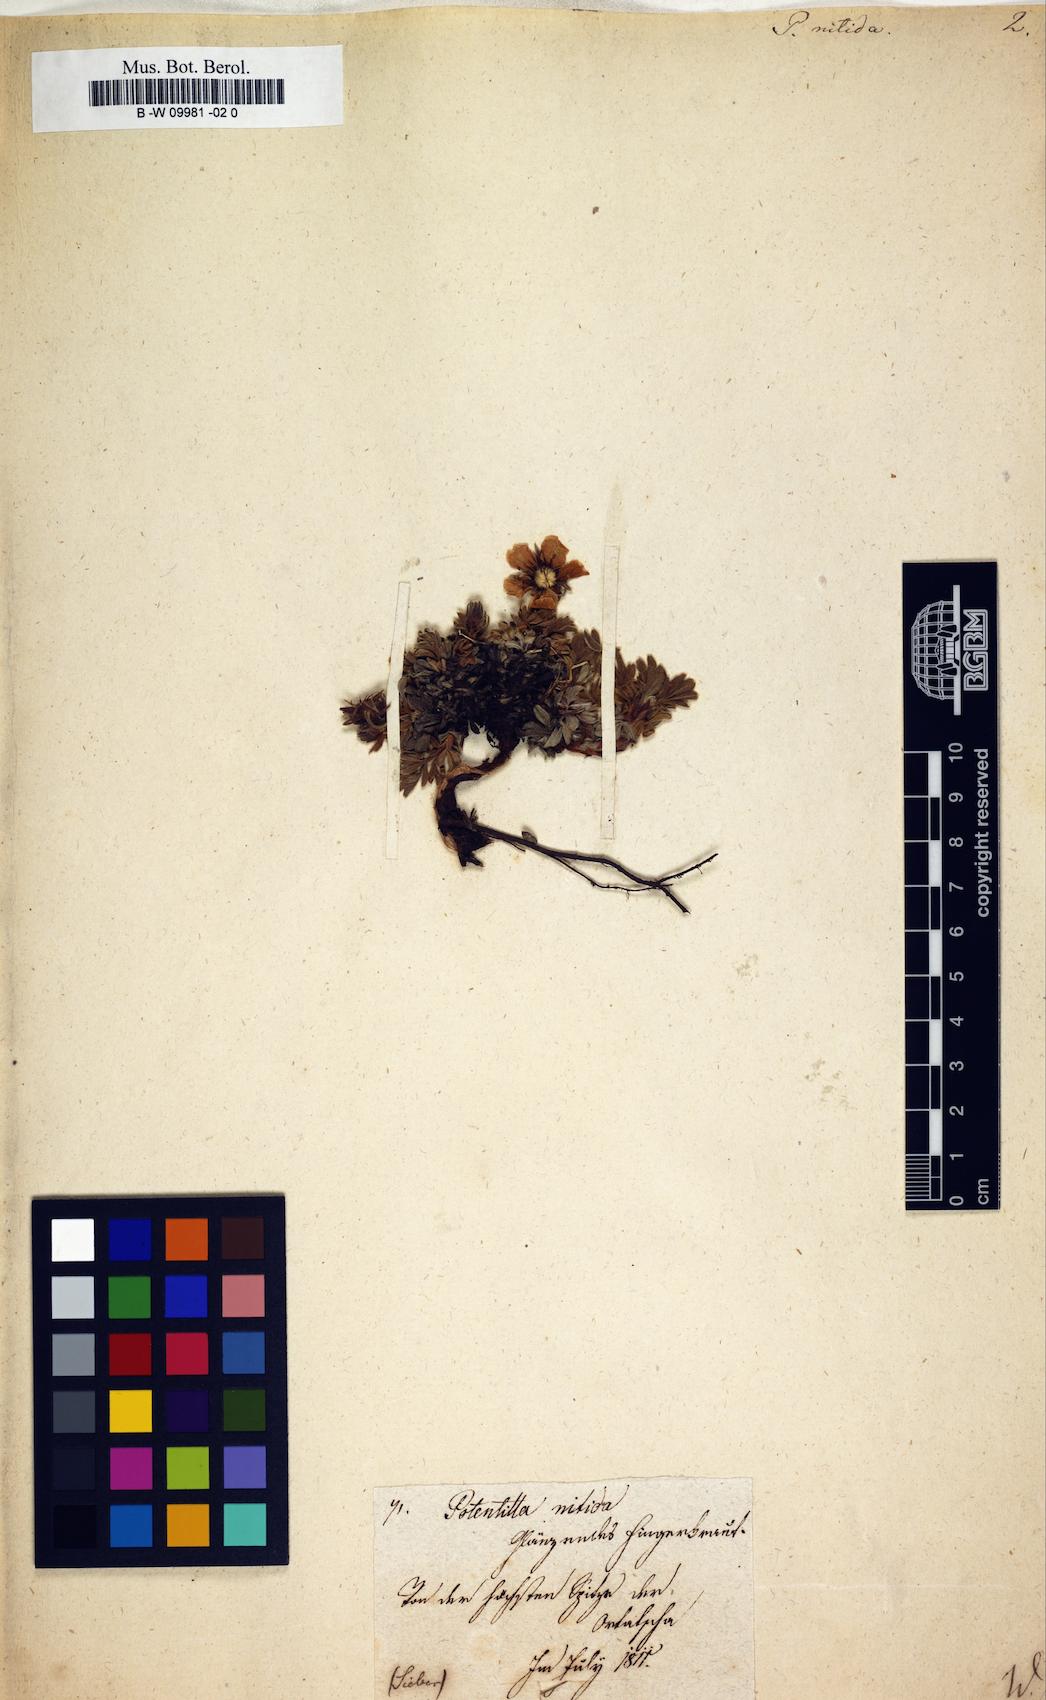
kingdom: Plantae
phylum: Tracheophyta
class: Magnoliopsida
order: Rosales
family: Rosaceae
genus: Potentilla
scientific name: Potentilla nitida
